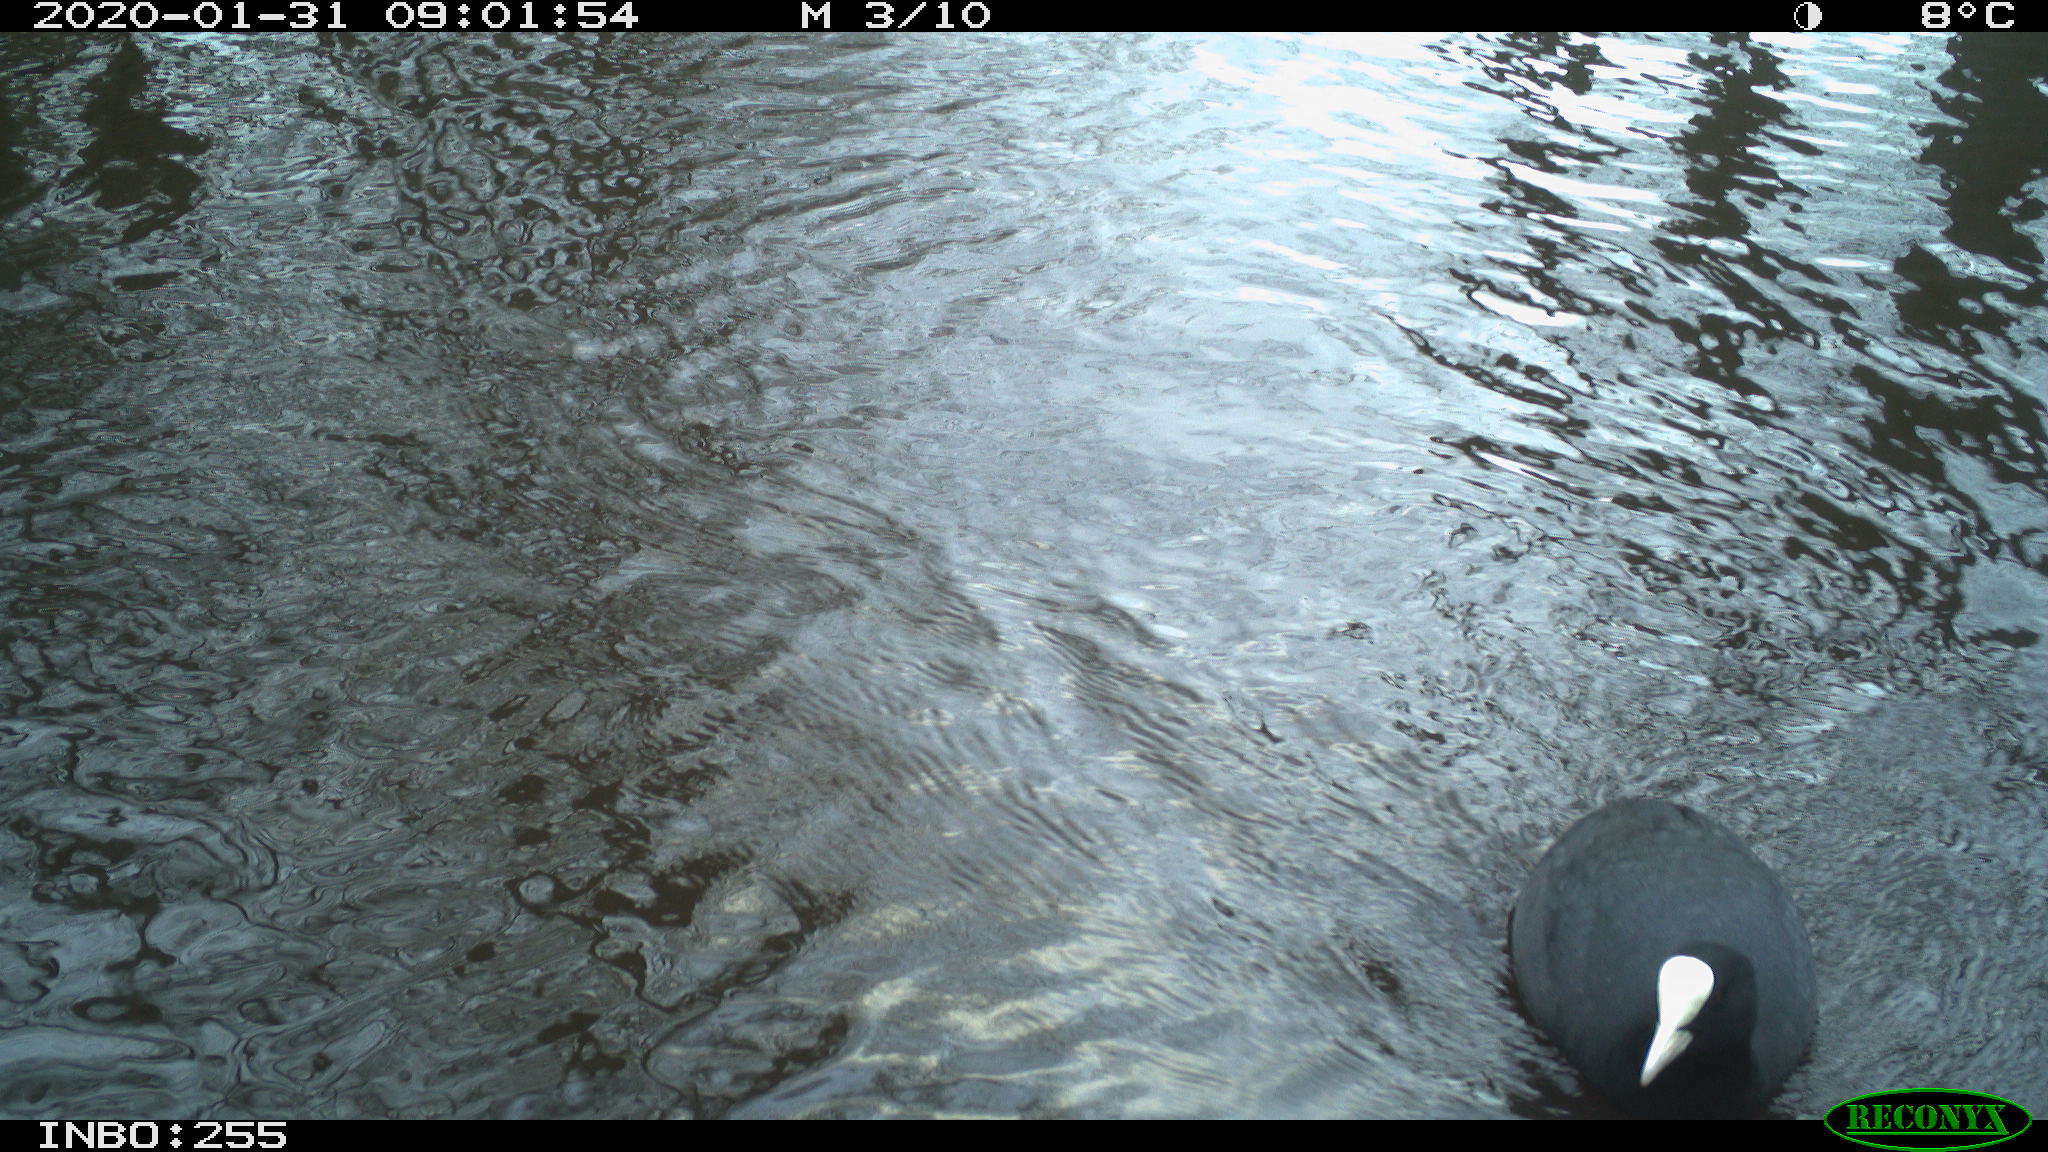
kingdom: Animalia
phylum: Chordata
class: Aves
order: Gruiformes
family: Rallidae
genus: Fulica
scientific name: Fulica atra
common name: Eurasian coot
